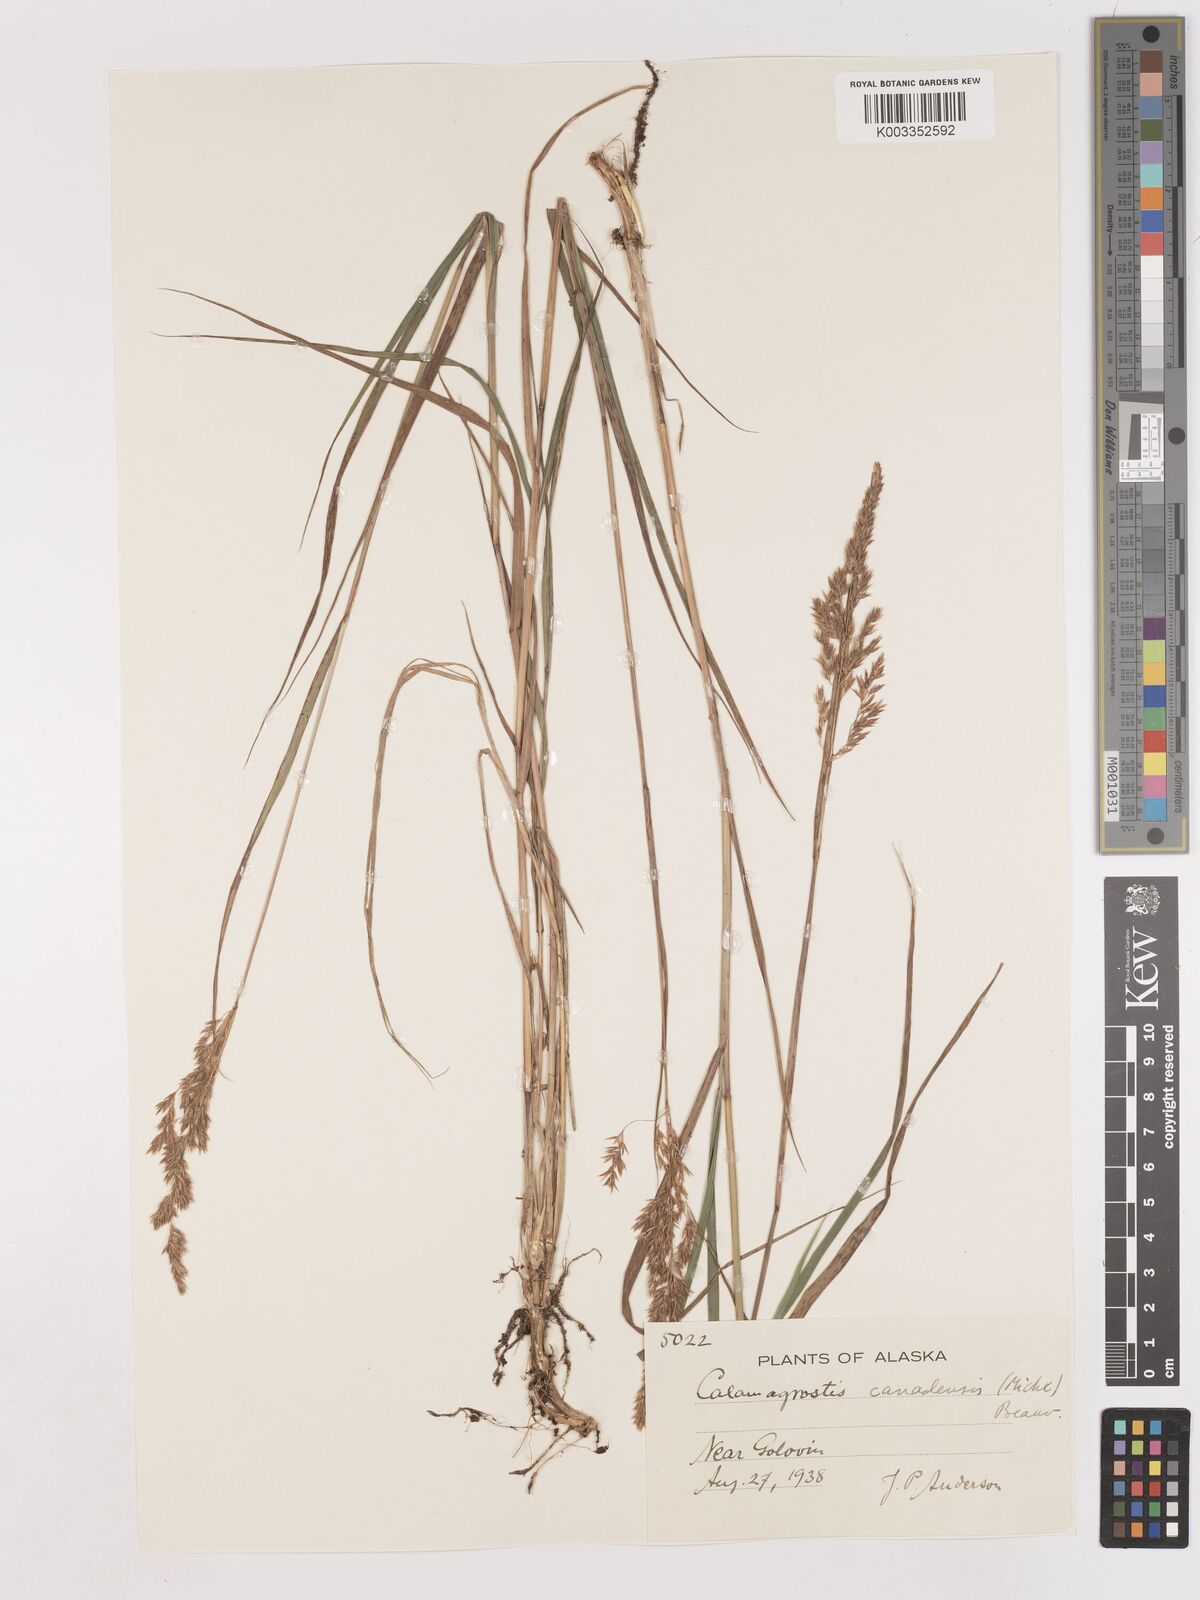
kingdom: Plantae
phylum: Tracheophyta
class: Liliopsida
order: Poales
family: Poaceae
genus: Calamagrostis
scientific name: Calamagrostis canadensis
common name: Canada bluejoint
